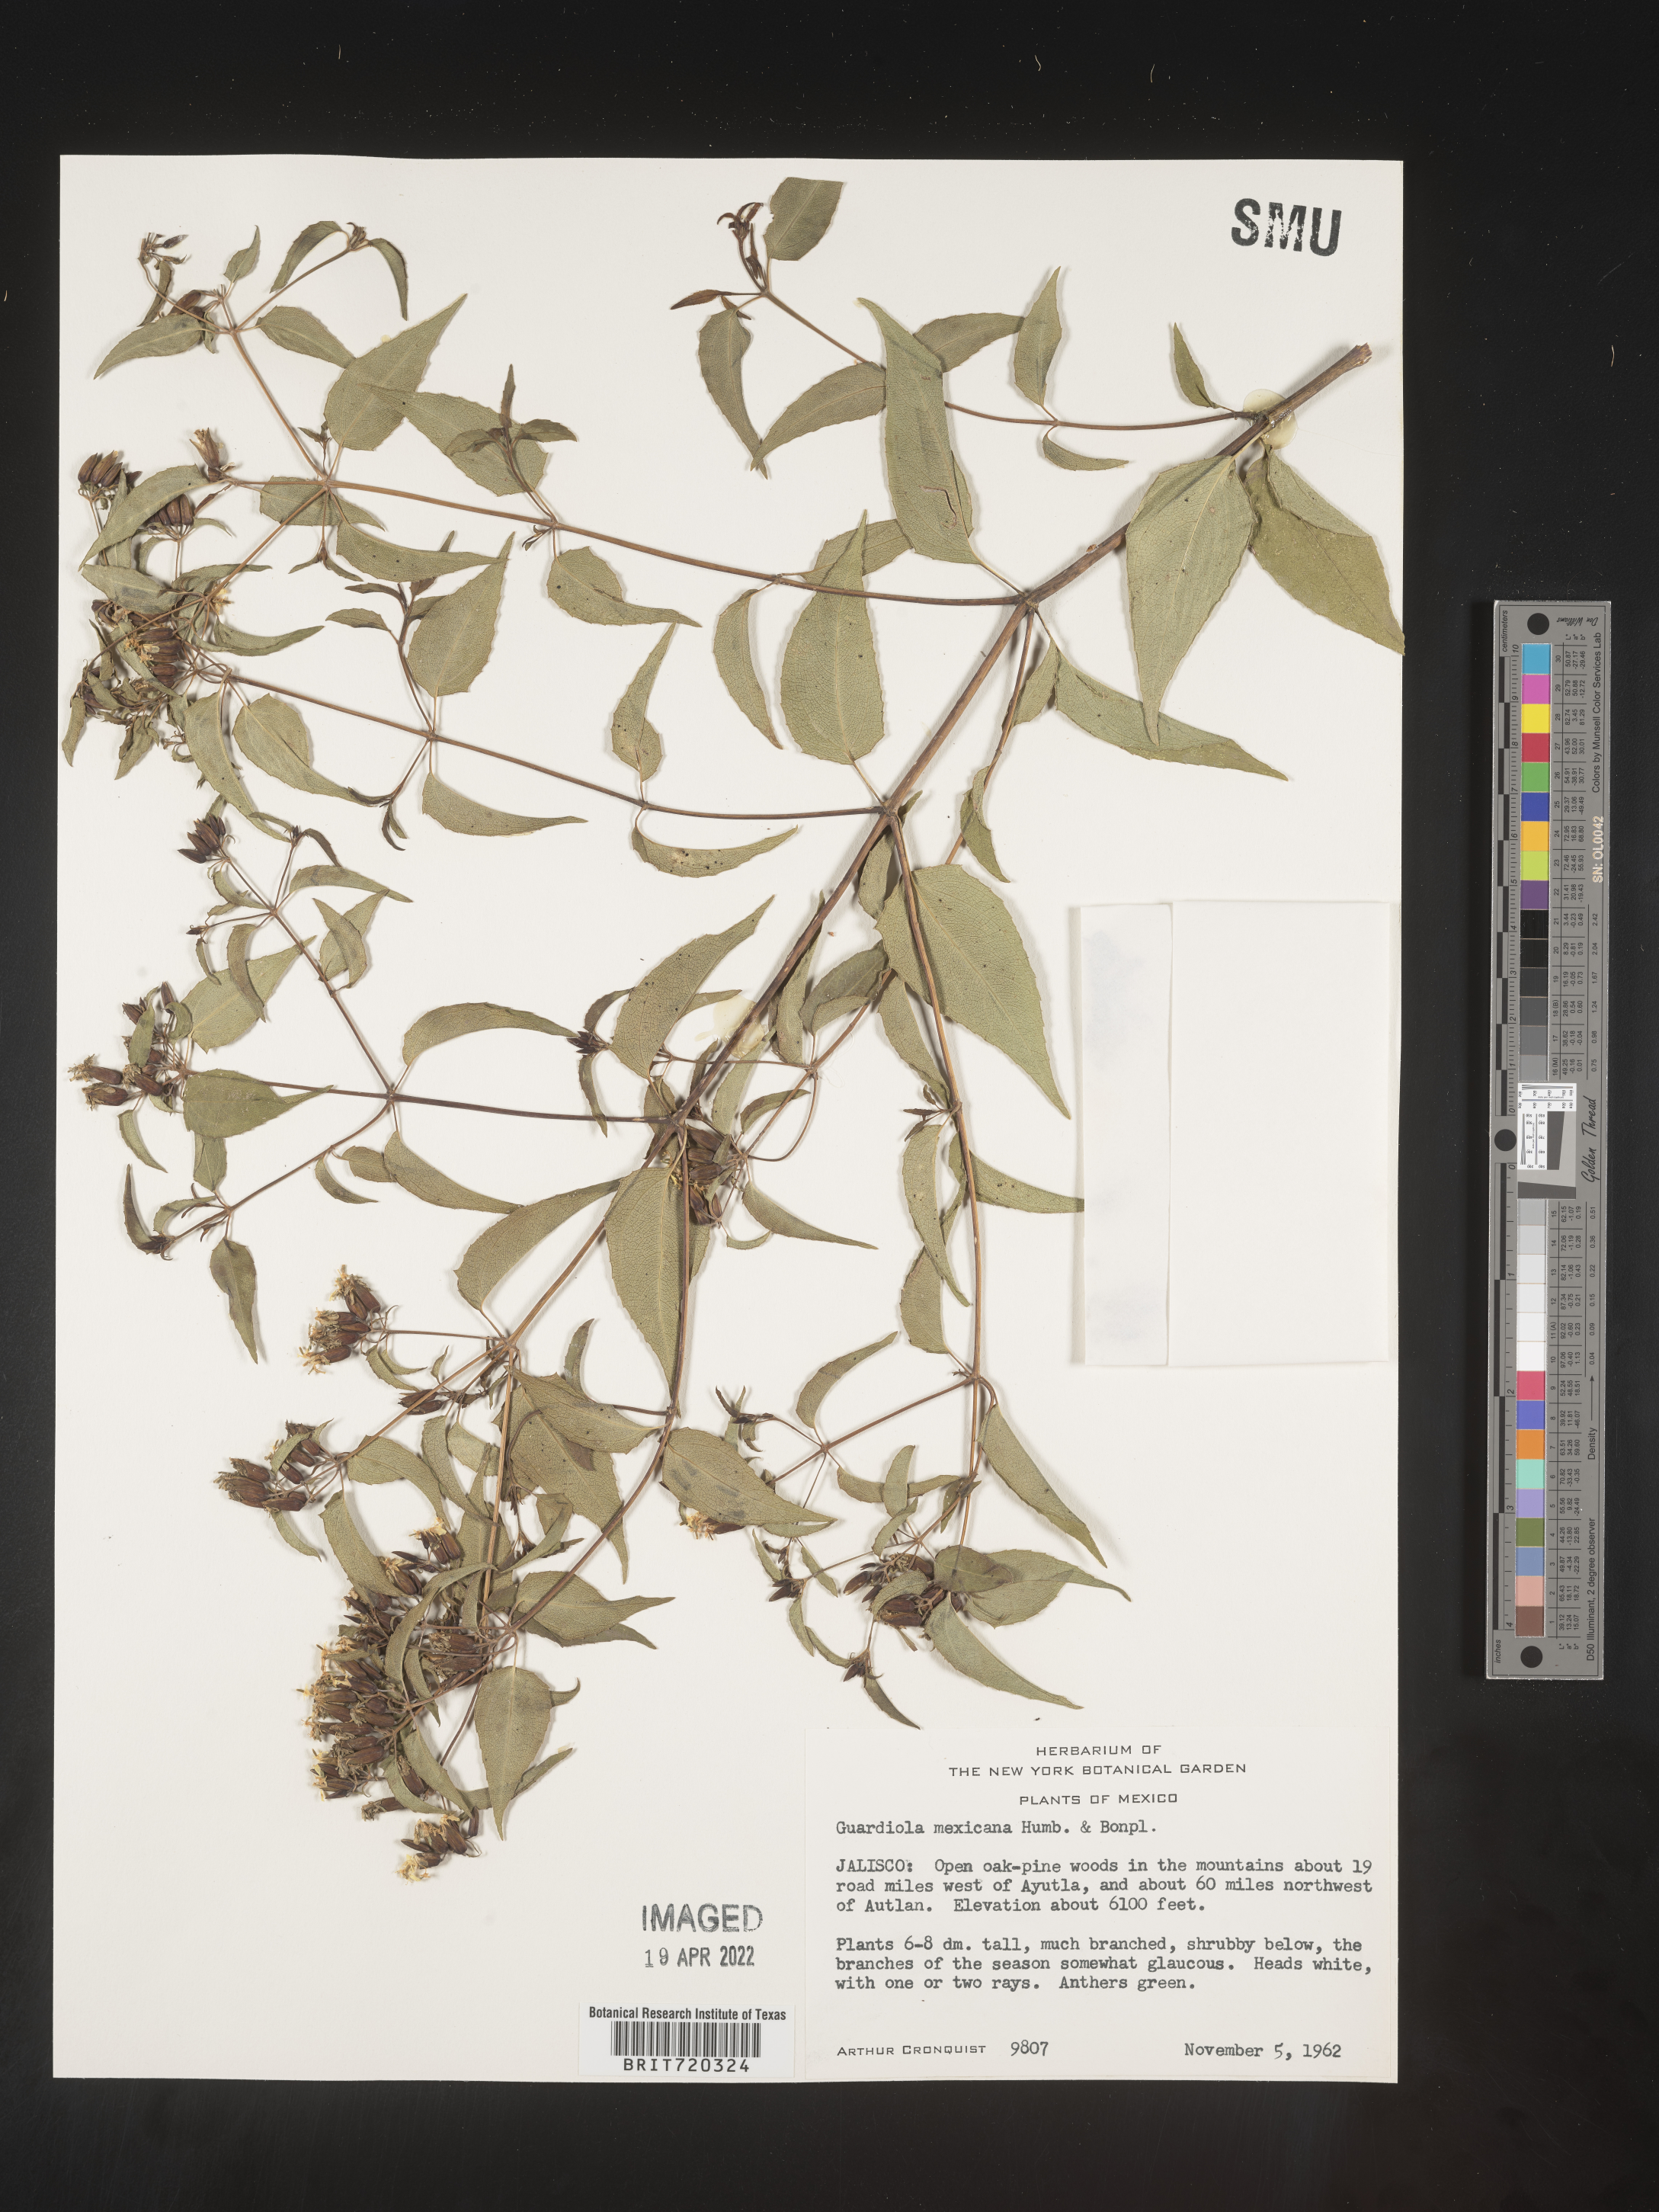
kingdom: Plantae
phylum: Tracheophyta
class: Magnoliopsida
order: Asterales
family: Asteraceae
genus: Guardiola
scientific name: Guardiola
